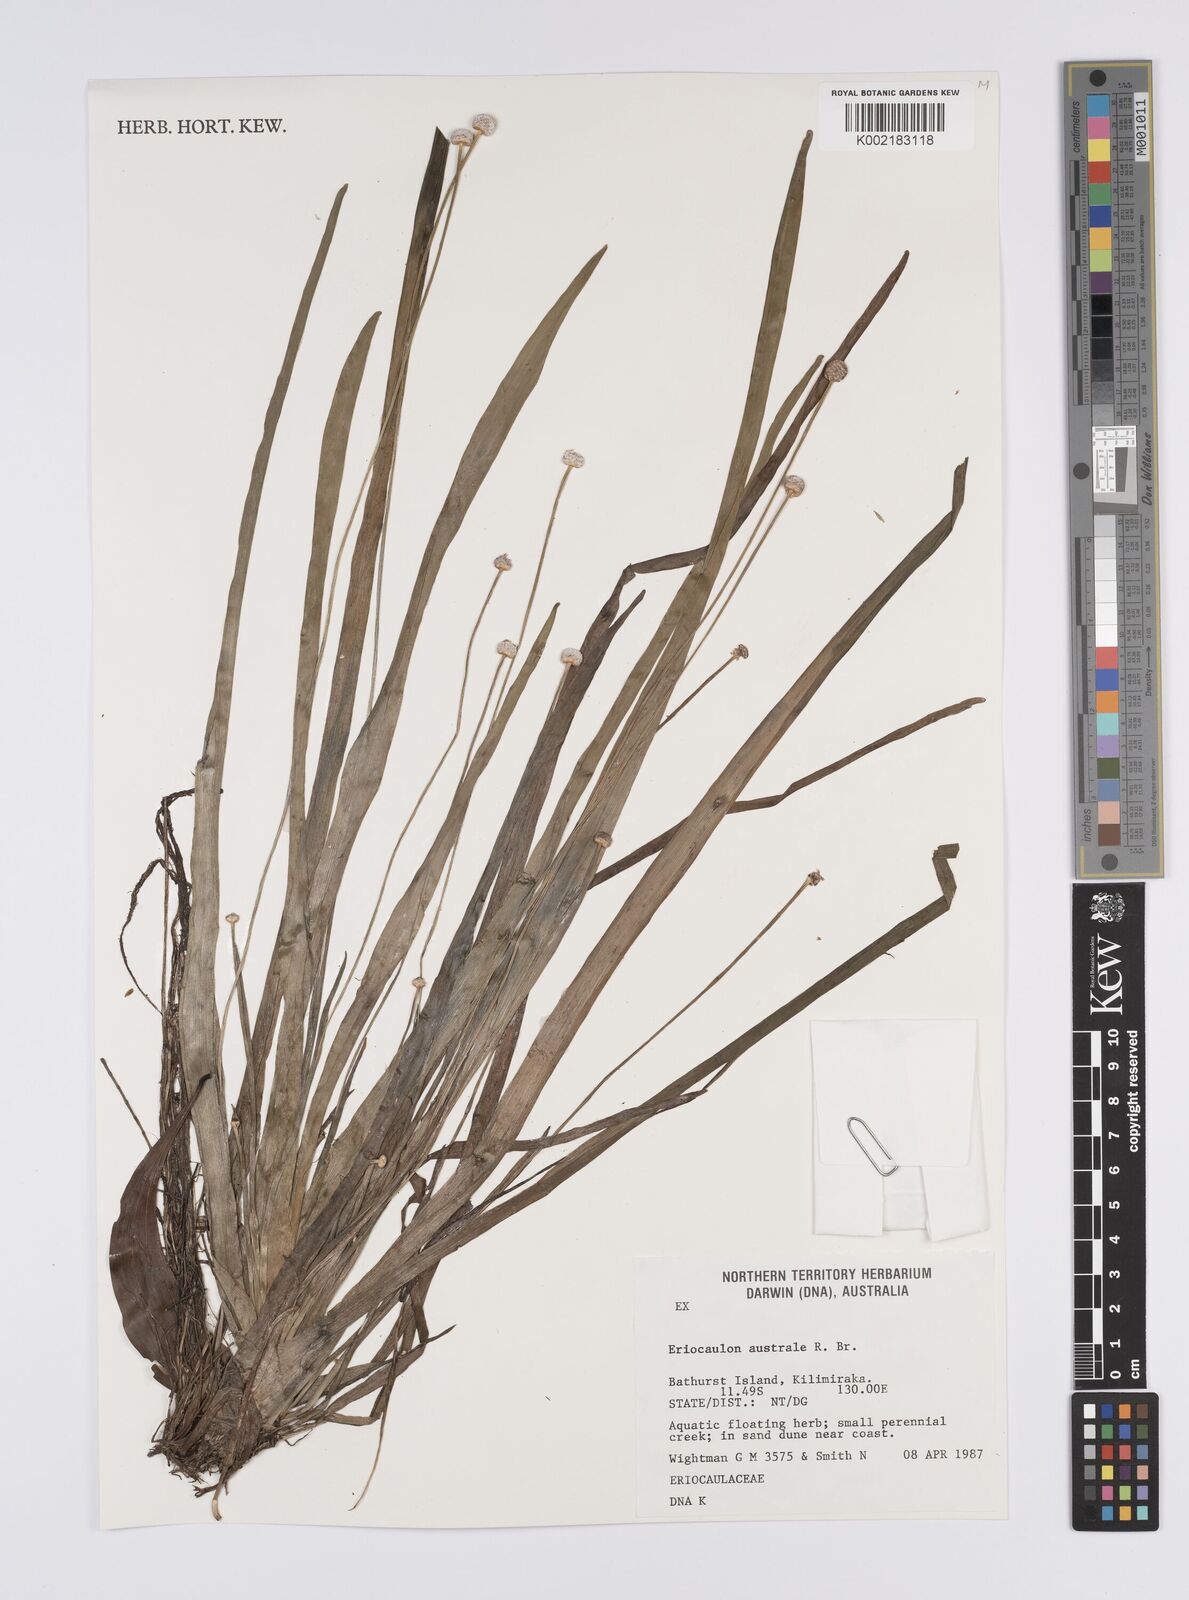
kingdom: Plantae
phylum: Tracheophyta
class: Liliopsida
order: Poales
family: Eriocaulaceae
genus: Eriocaulon
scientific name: Eriocaulon australe
